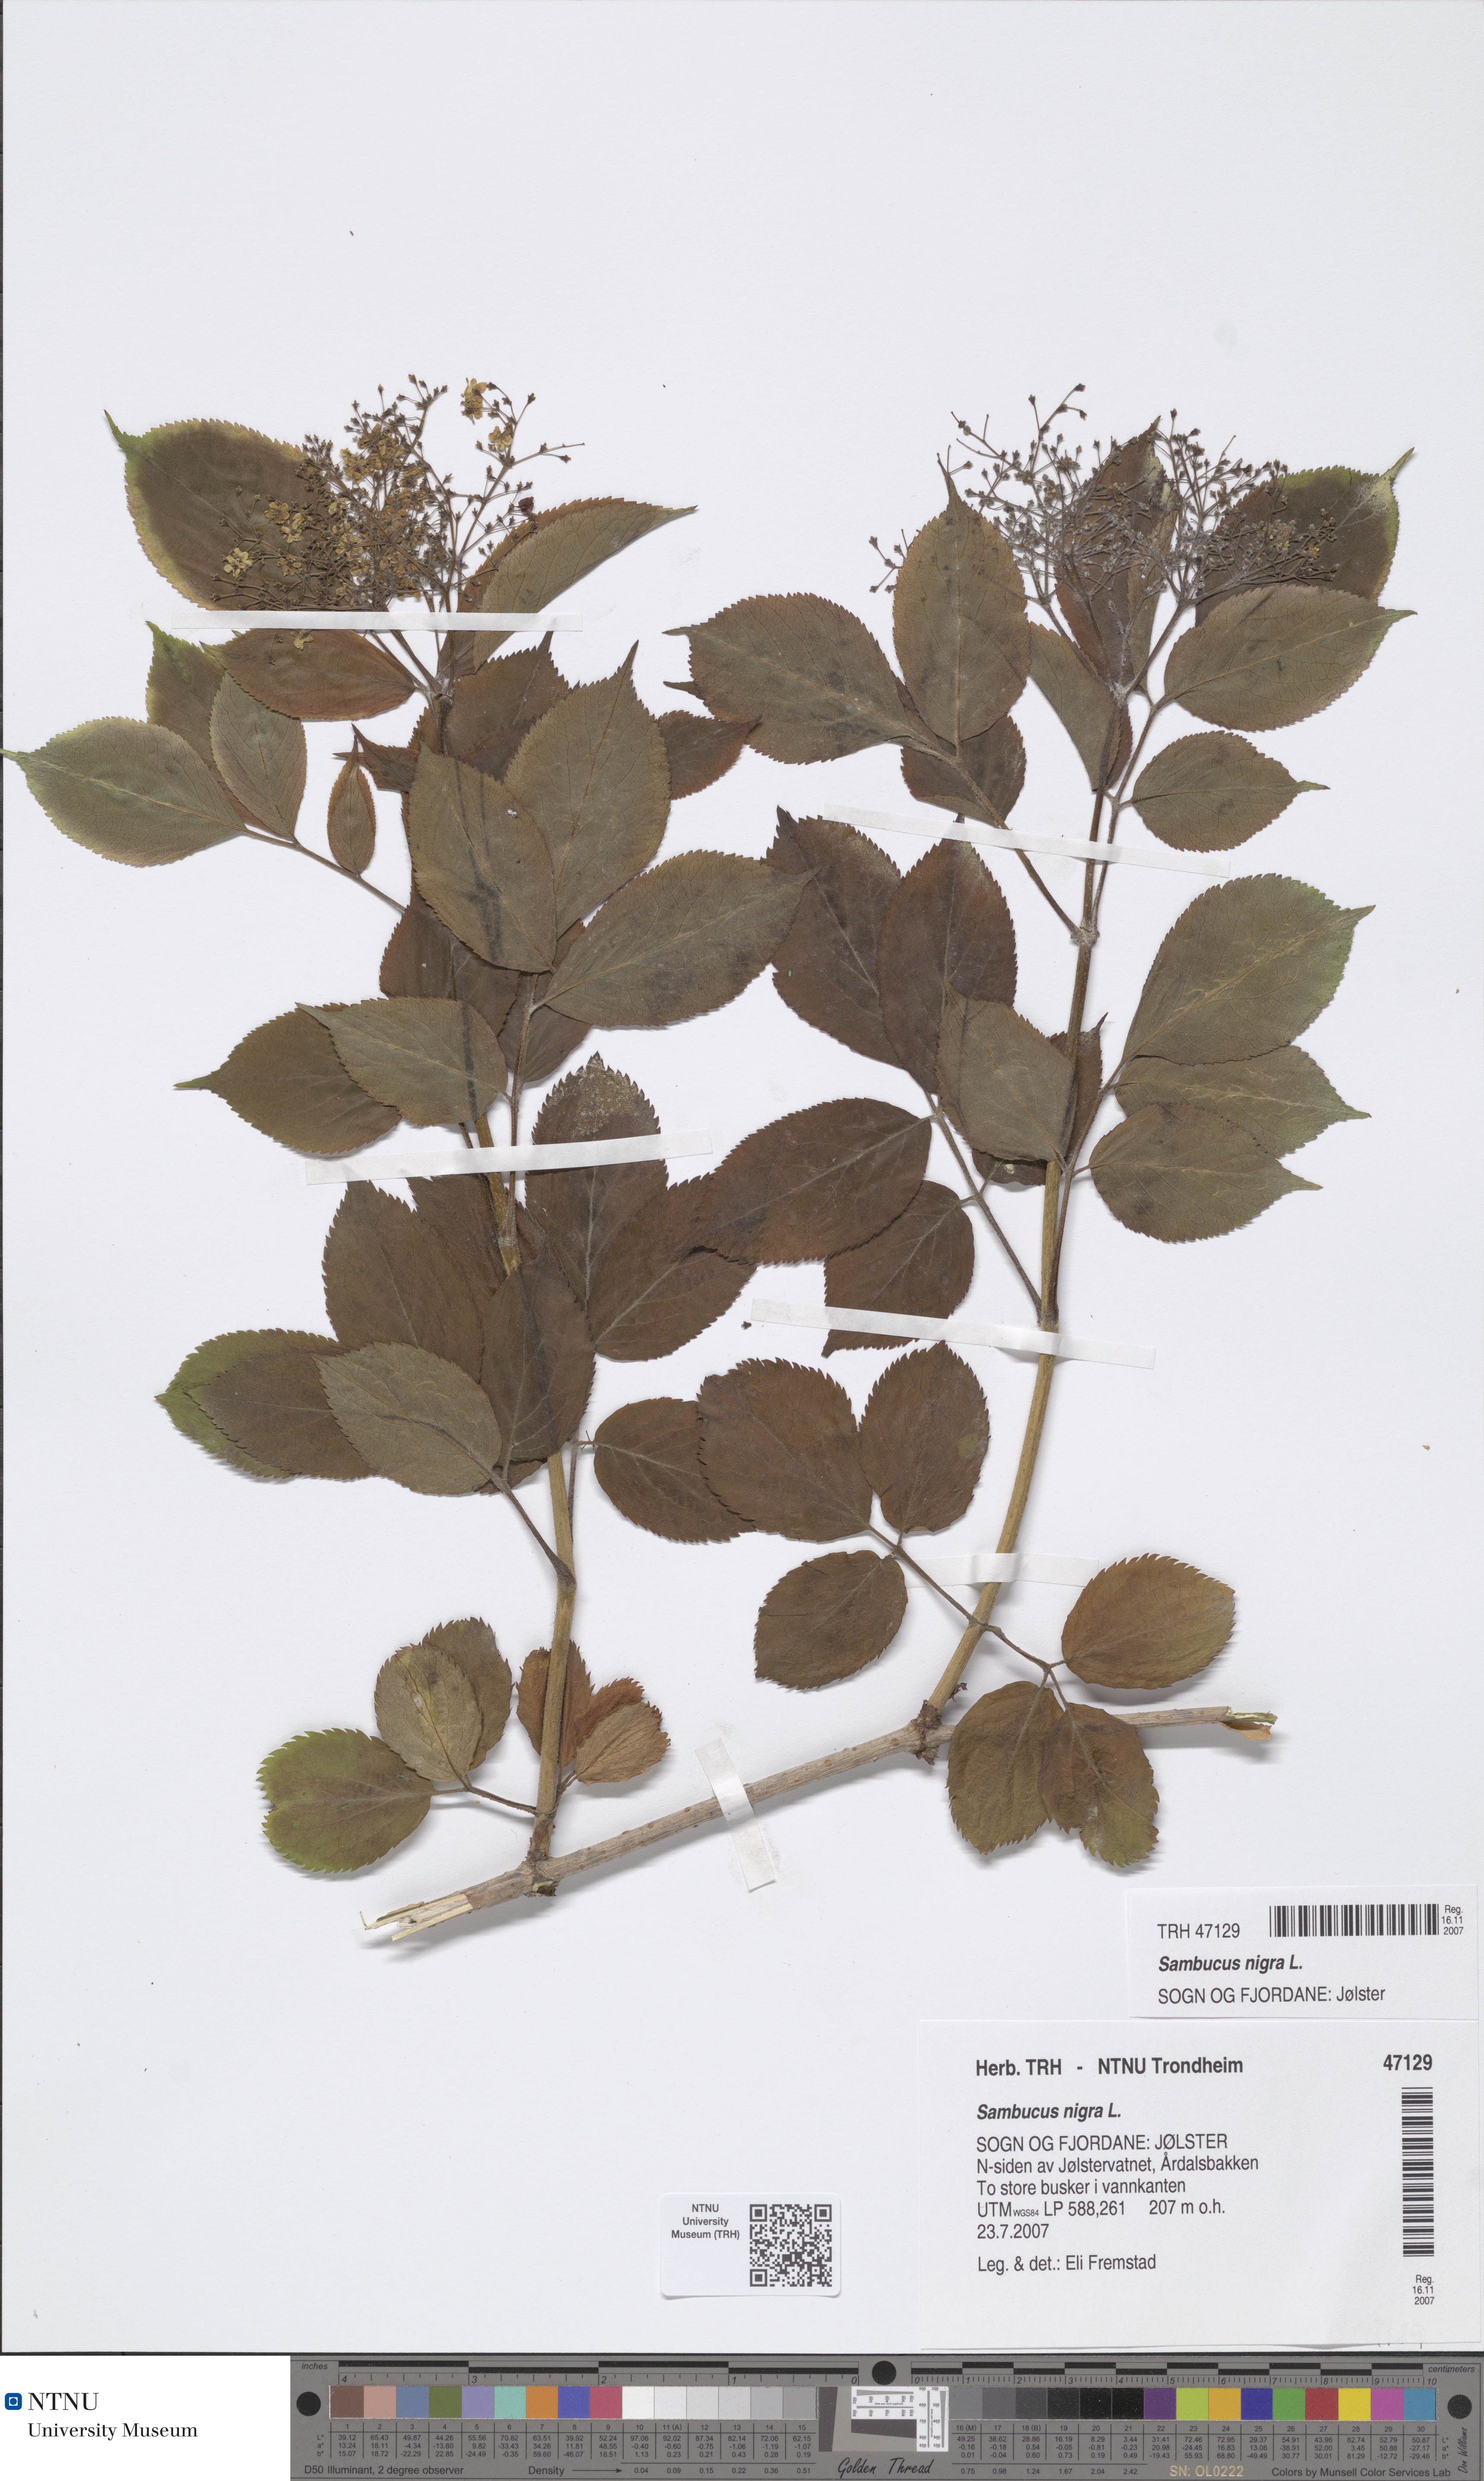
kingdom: Plantae
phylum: Tracheophyta
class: Magnoliopsida
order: Dipsacales
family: Viburnaceae
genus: Sambucus
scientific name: Sambucus nigra
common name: Elder
